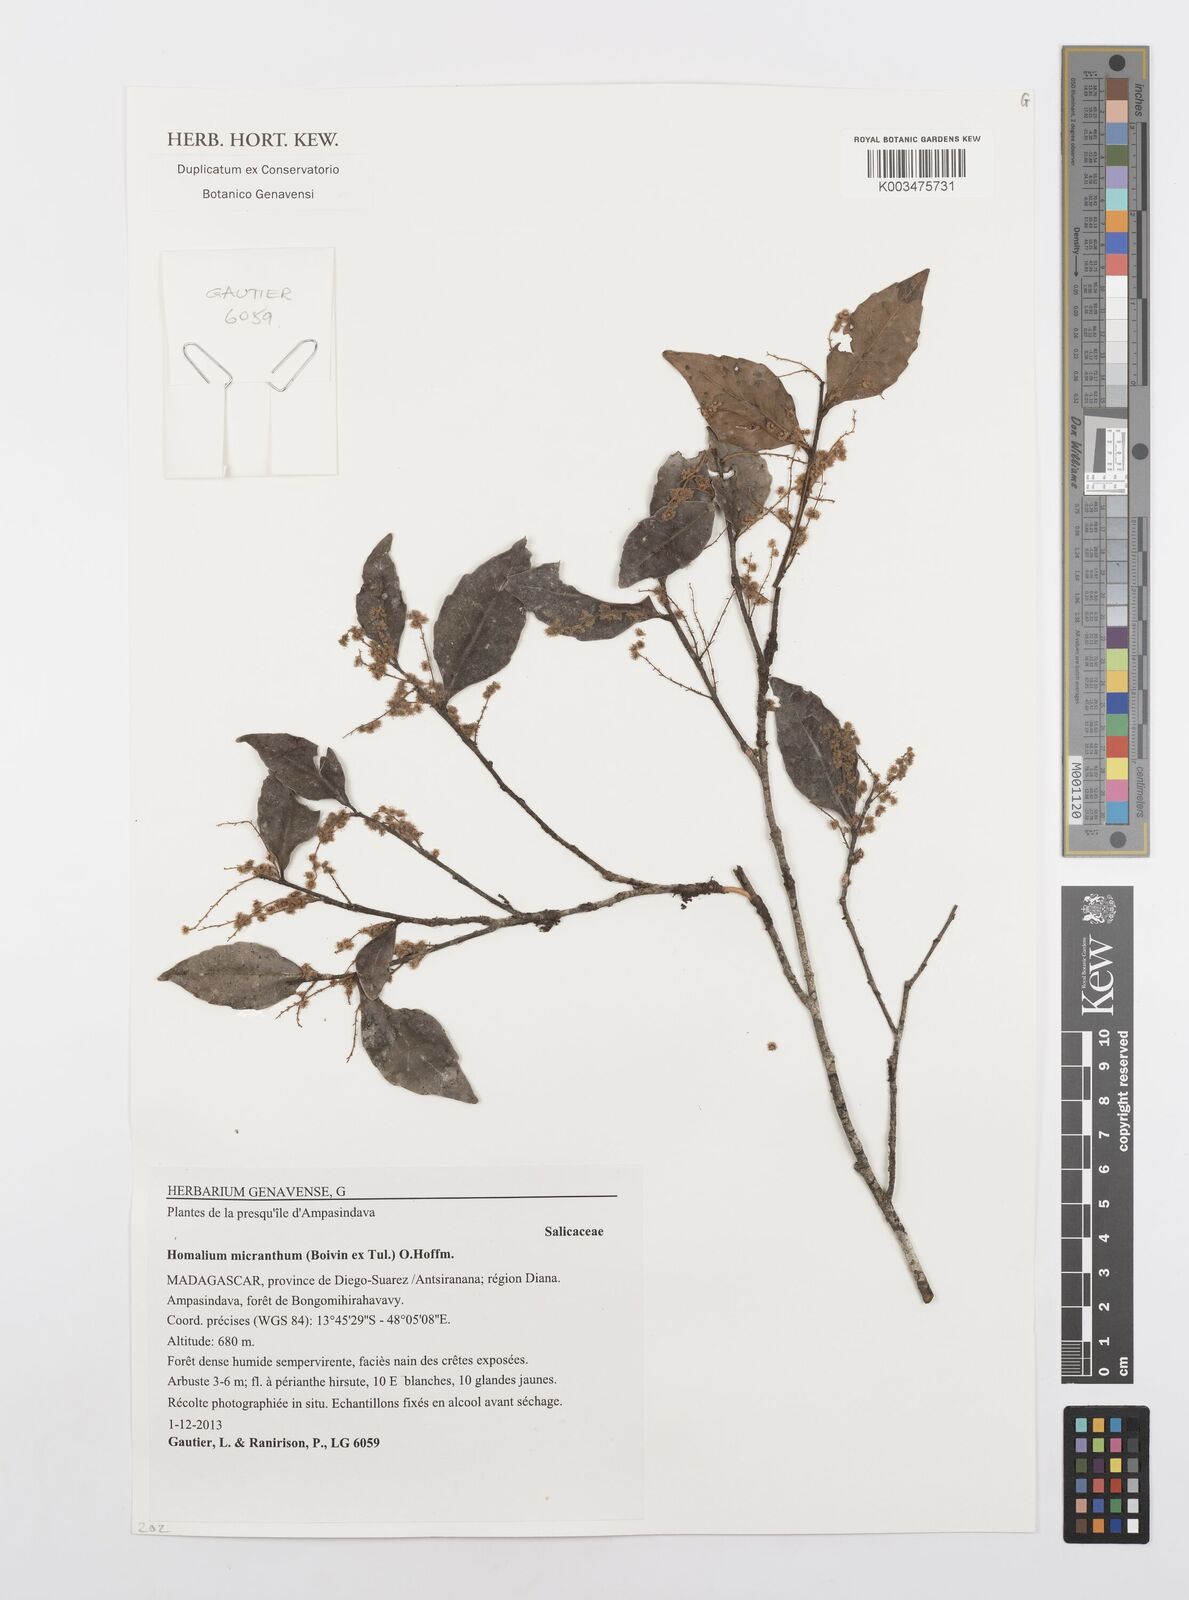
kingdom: Plantae
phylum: Tracheophyta
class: Magnoliopsida
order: Malpighiales
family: Salicaceae
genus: Homalium
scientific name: Homalium micranthum
